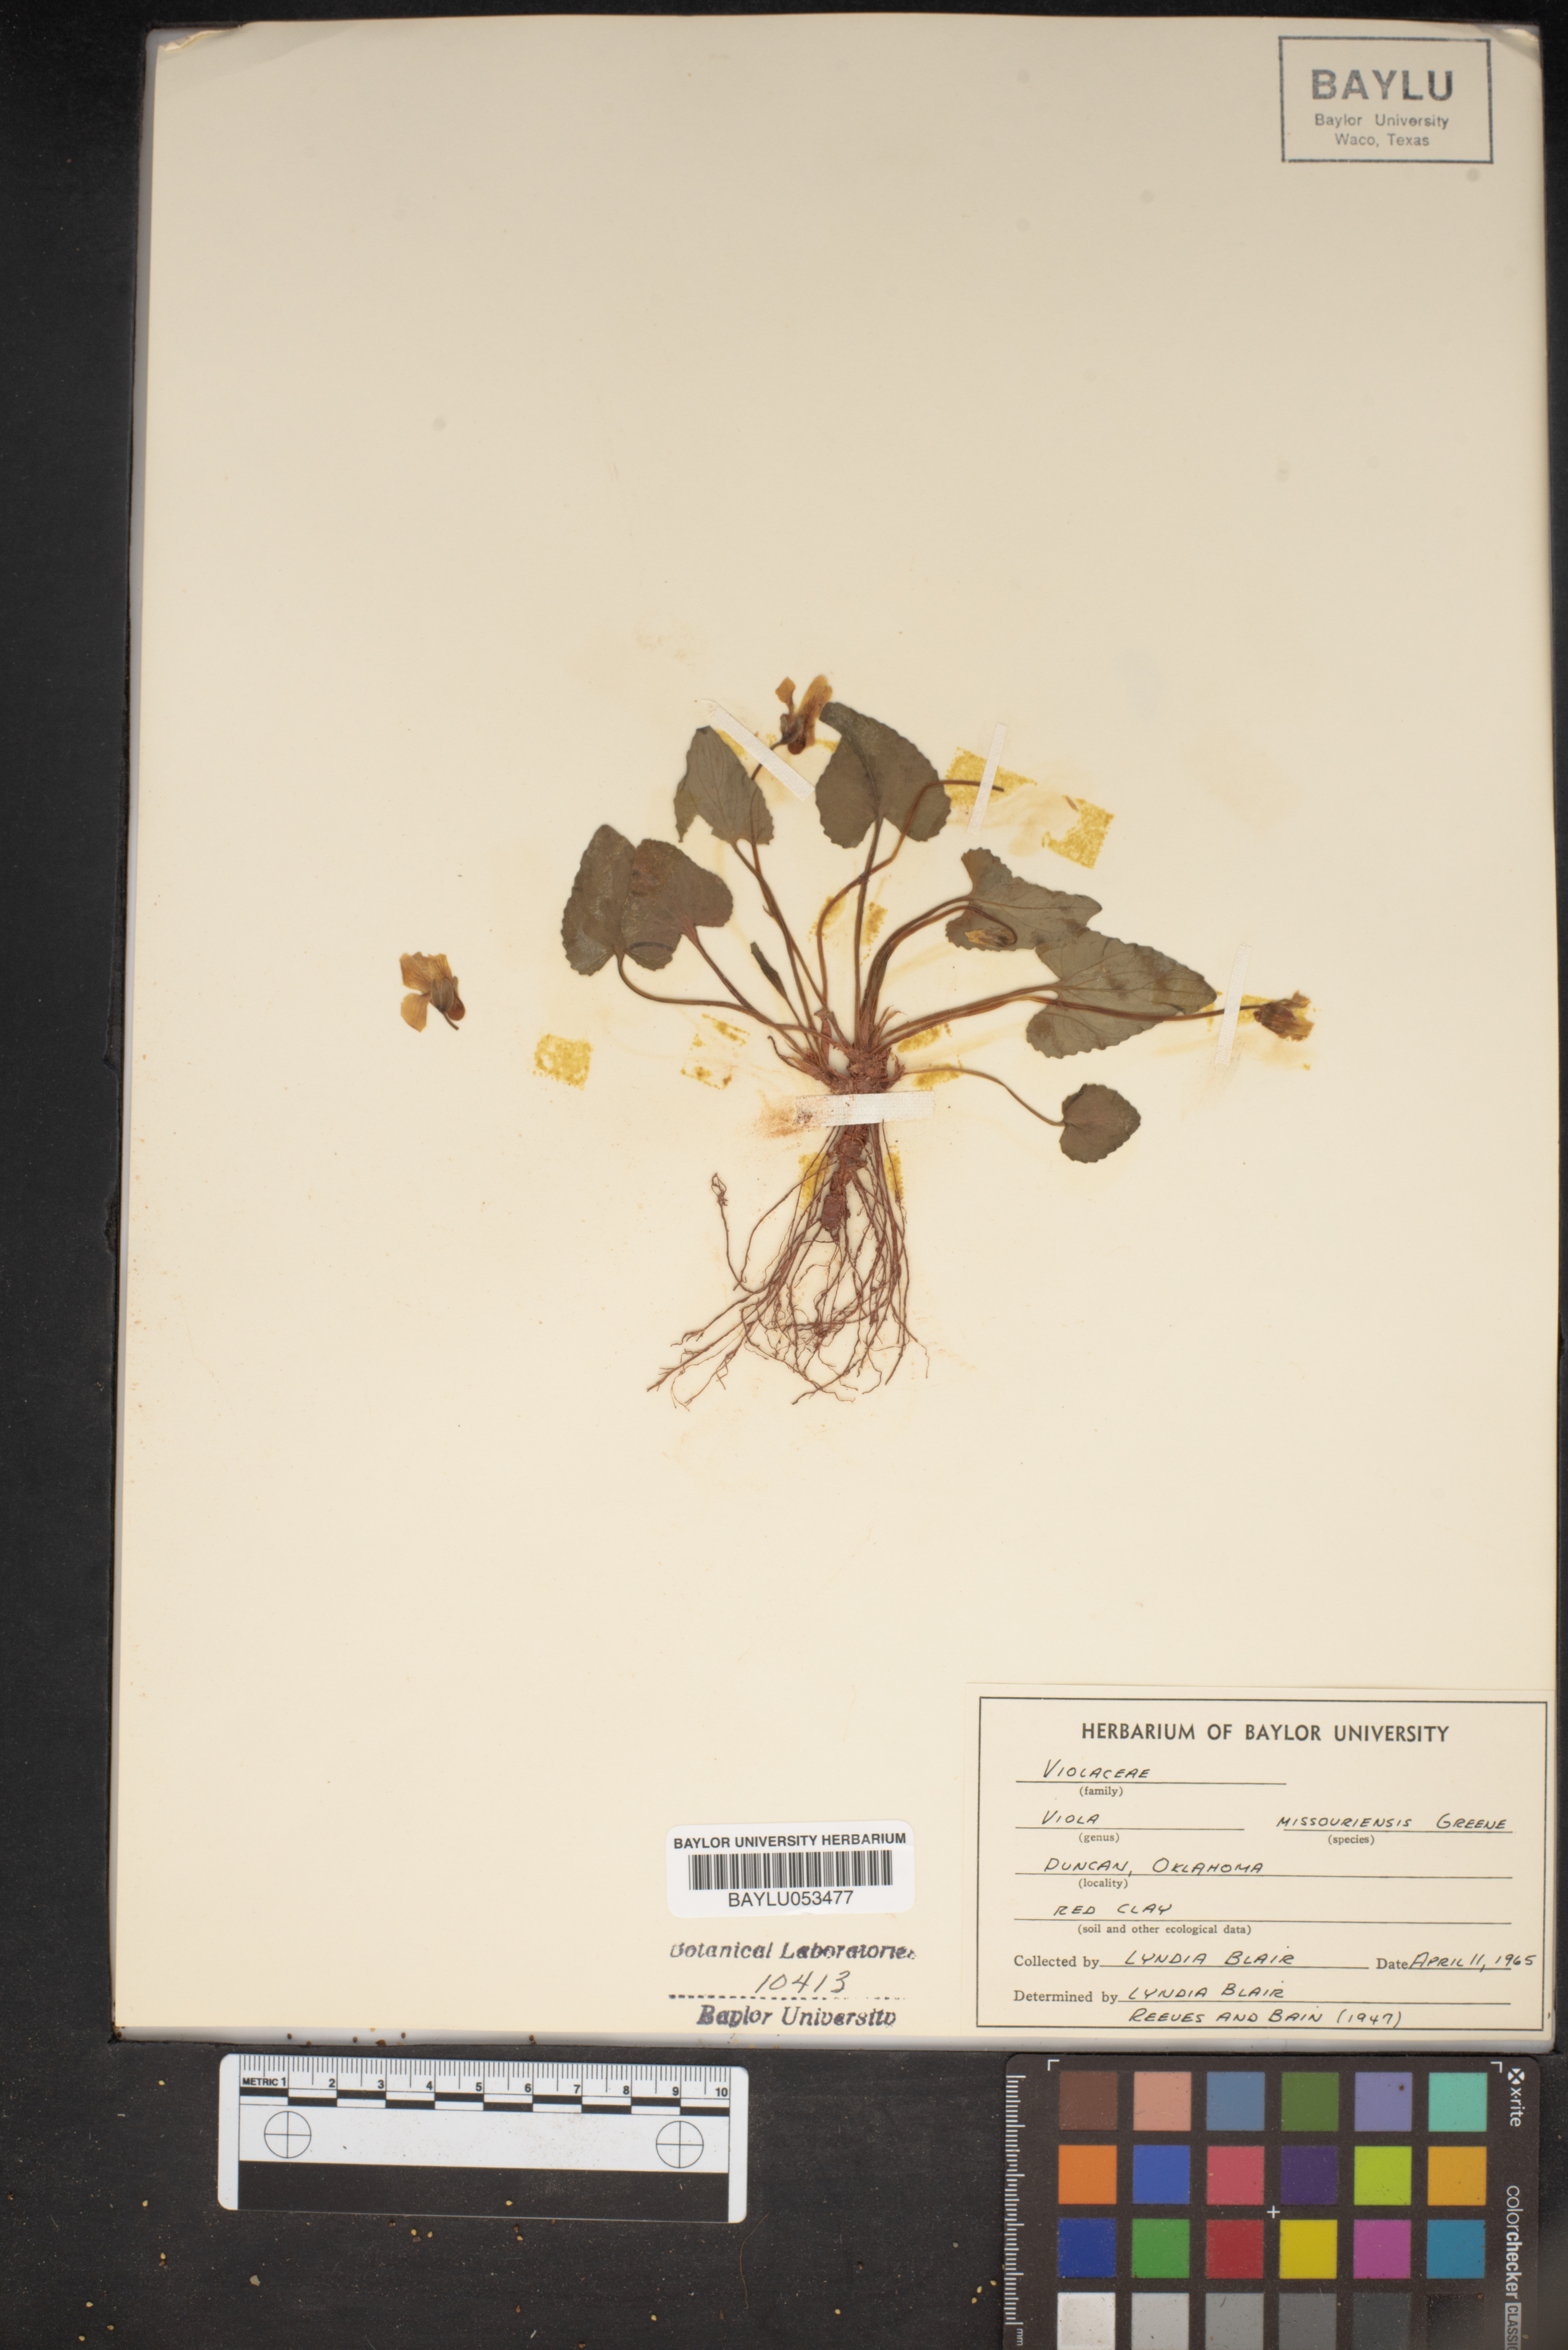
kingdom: Plantae
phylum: Tracheophyta
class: Magnoliopsida
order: Malpighiales
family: Violaceae
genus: Viola
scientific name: Viola missouriensis
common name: Missouri violet
